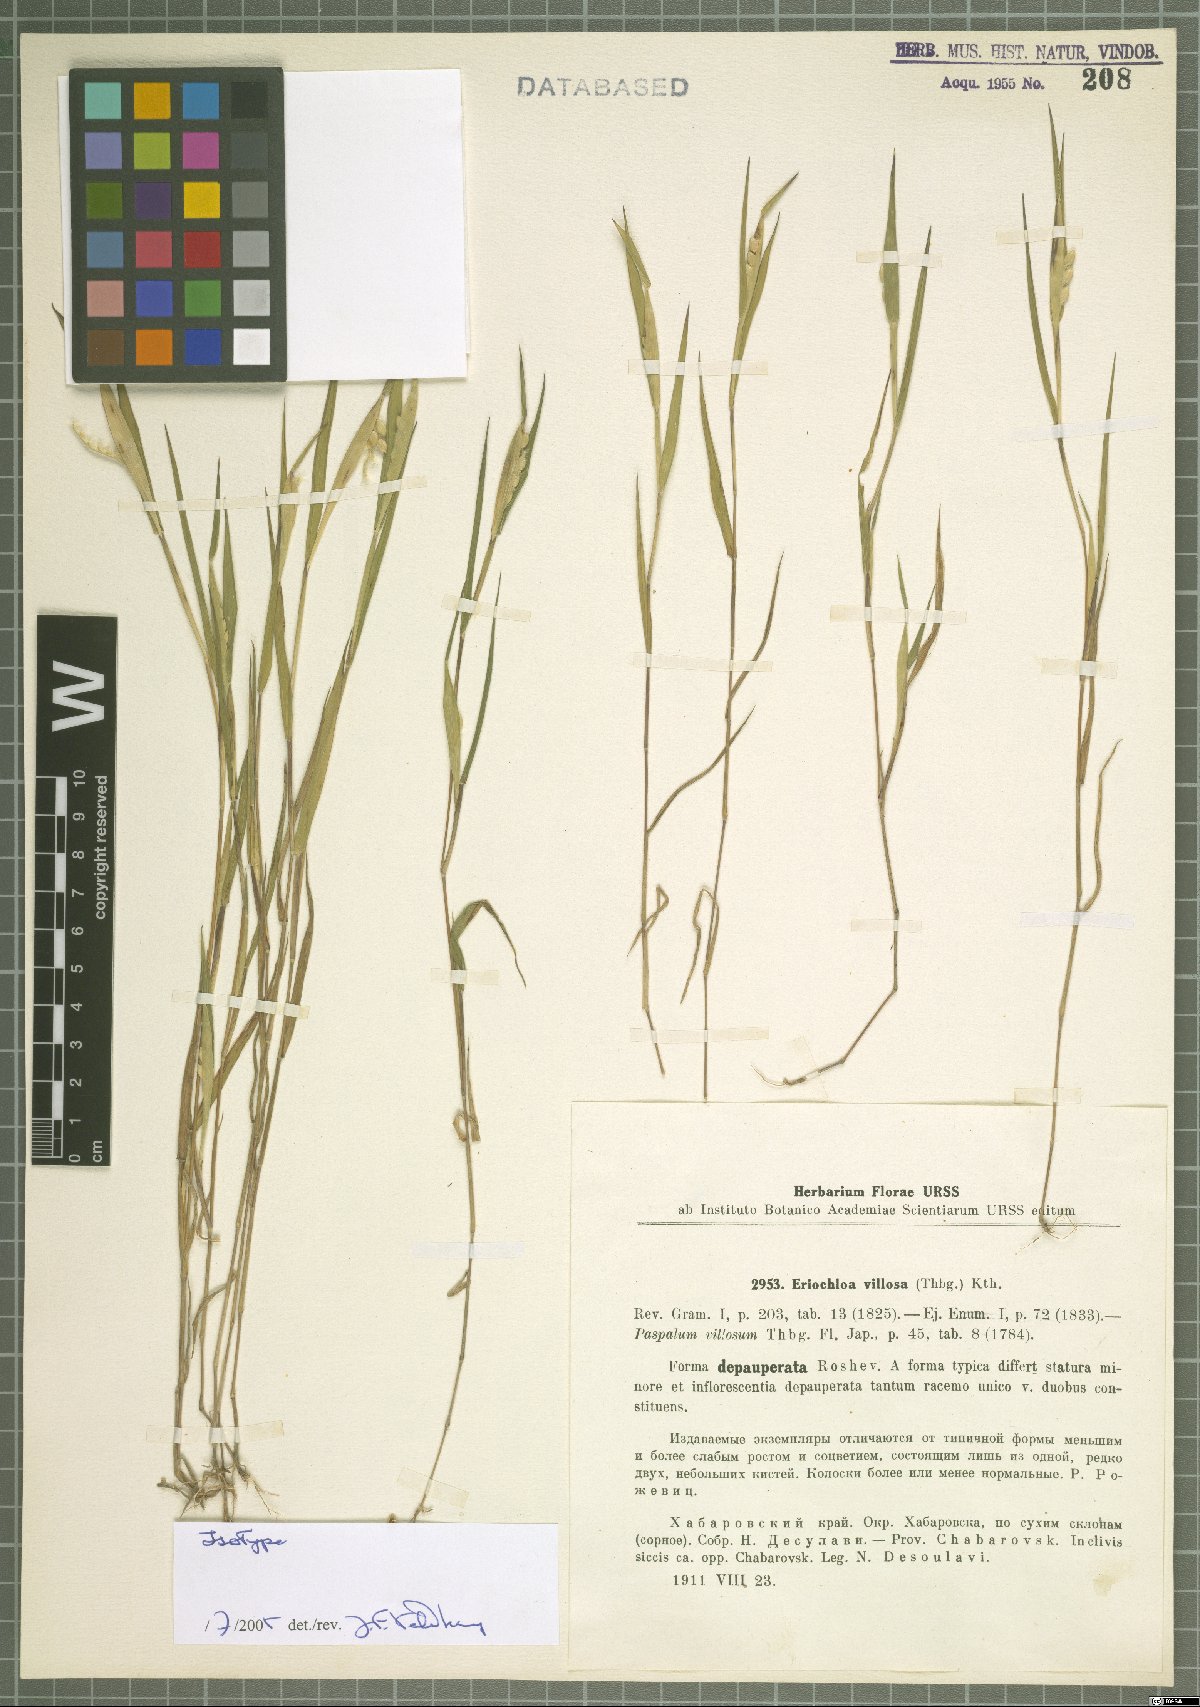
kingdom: Plantae
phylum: Tracheophyta
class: Liliopsida
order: Poales
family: Poaceae
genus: Eriochloa
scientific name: Eriochloa villosa
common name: Hairy cupgrass
